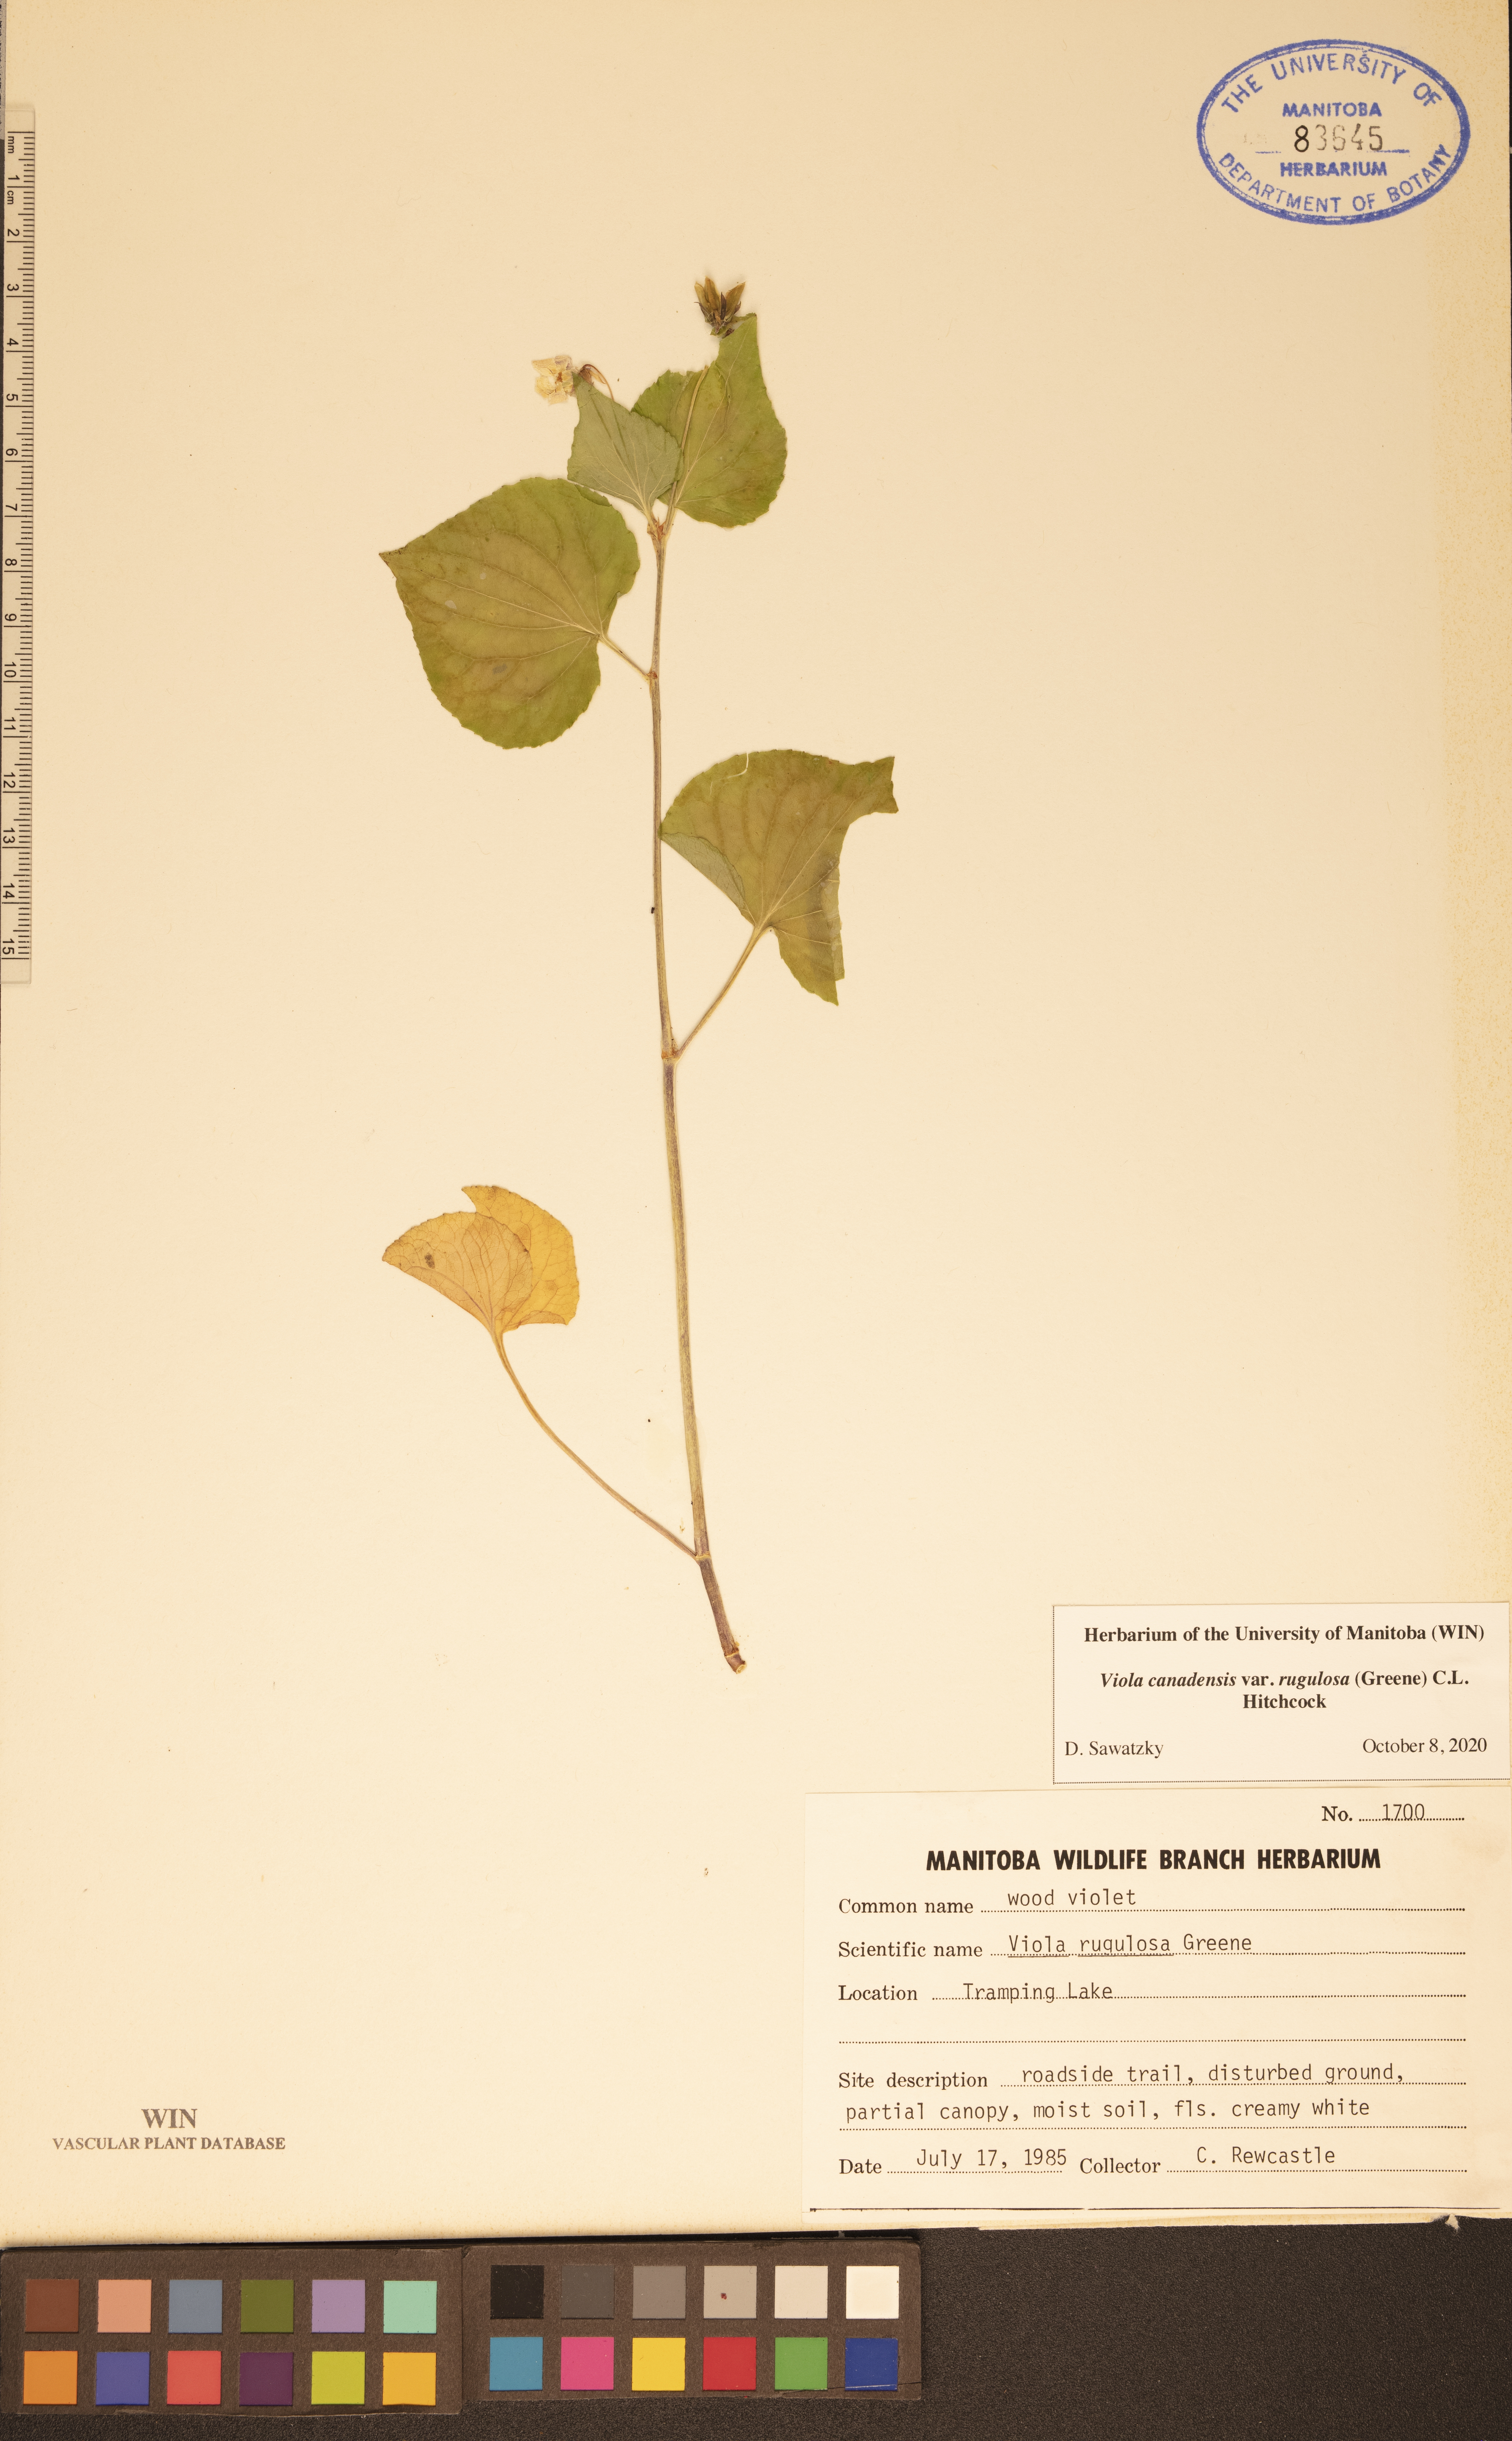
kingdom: Plantae
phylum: Tracheophyta
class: Magnoliopsida
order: Malpighiales
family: Violaceae
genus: Viola
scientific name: Viola rugulosa
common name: Creeping-root violet
